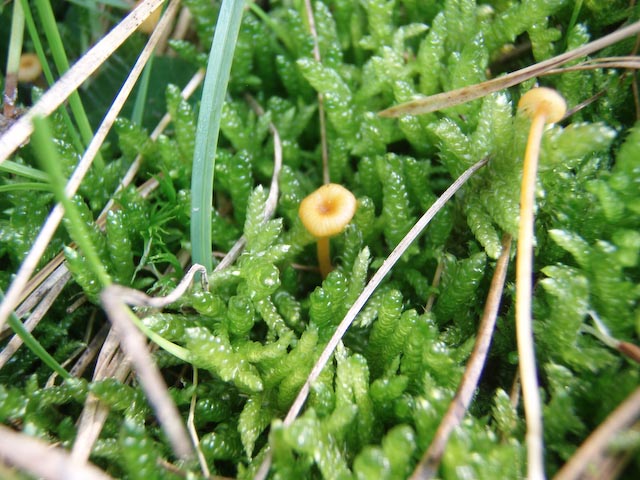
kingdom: Fungi
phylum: Basidiomycota
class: Agaricomycetes
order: Hymenochaetales
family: Rickenellaceae
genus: Rickenella
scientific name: Rickenella fibula
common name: orange mosnavlehat
